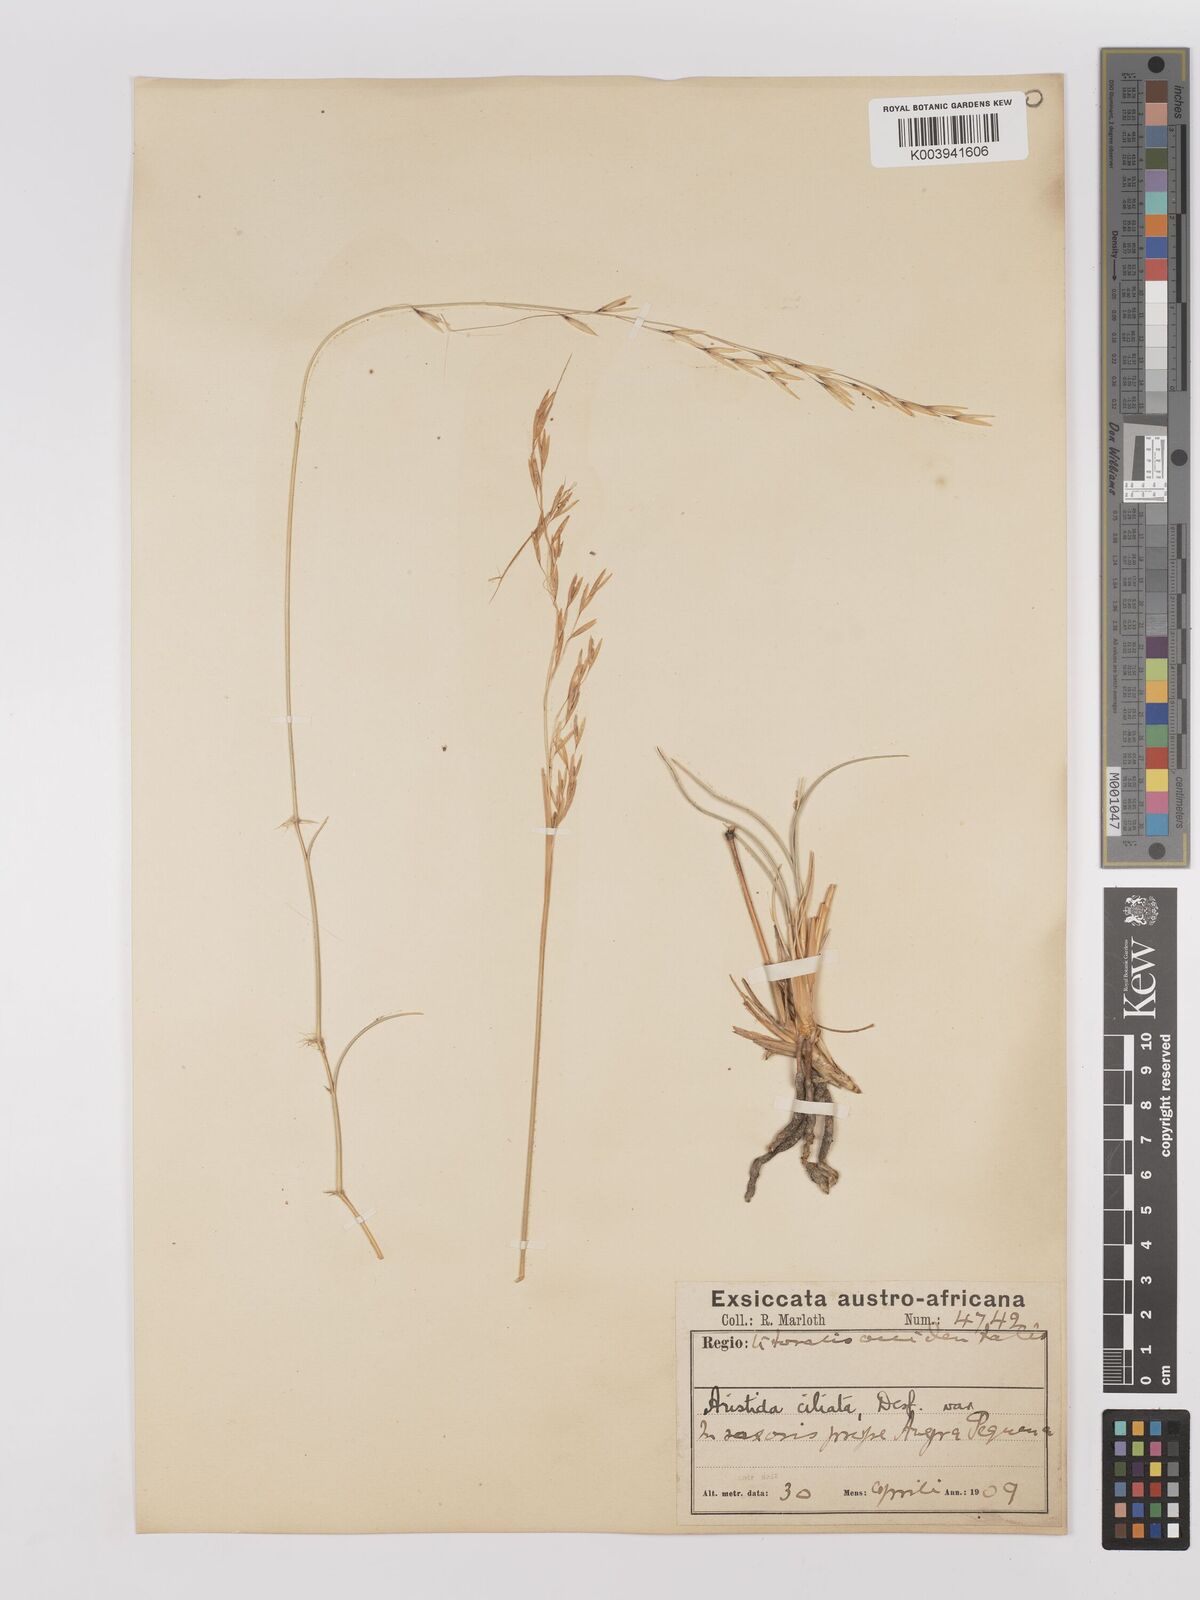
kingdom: Plantae
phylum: Tracheophyta
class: Liliopsida
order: Poales
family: Poaceae
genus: Stipagrostis
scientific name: Stipagrostis ciliata
